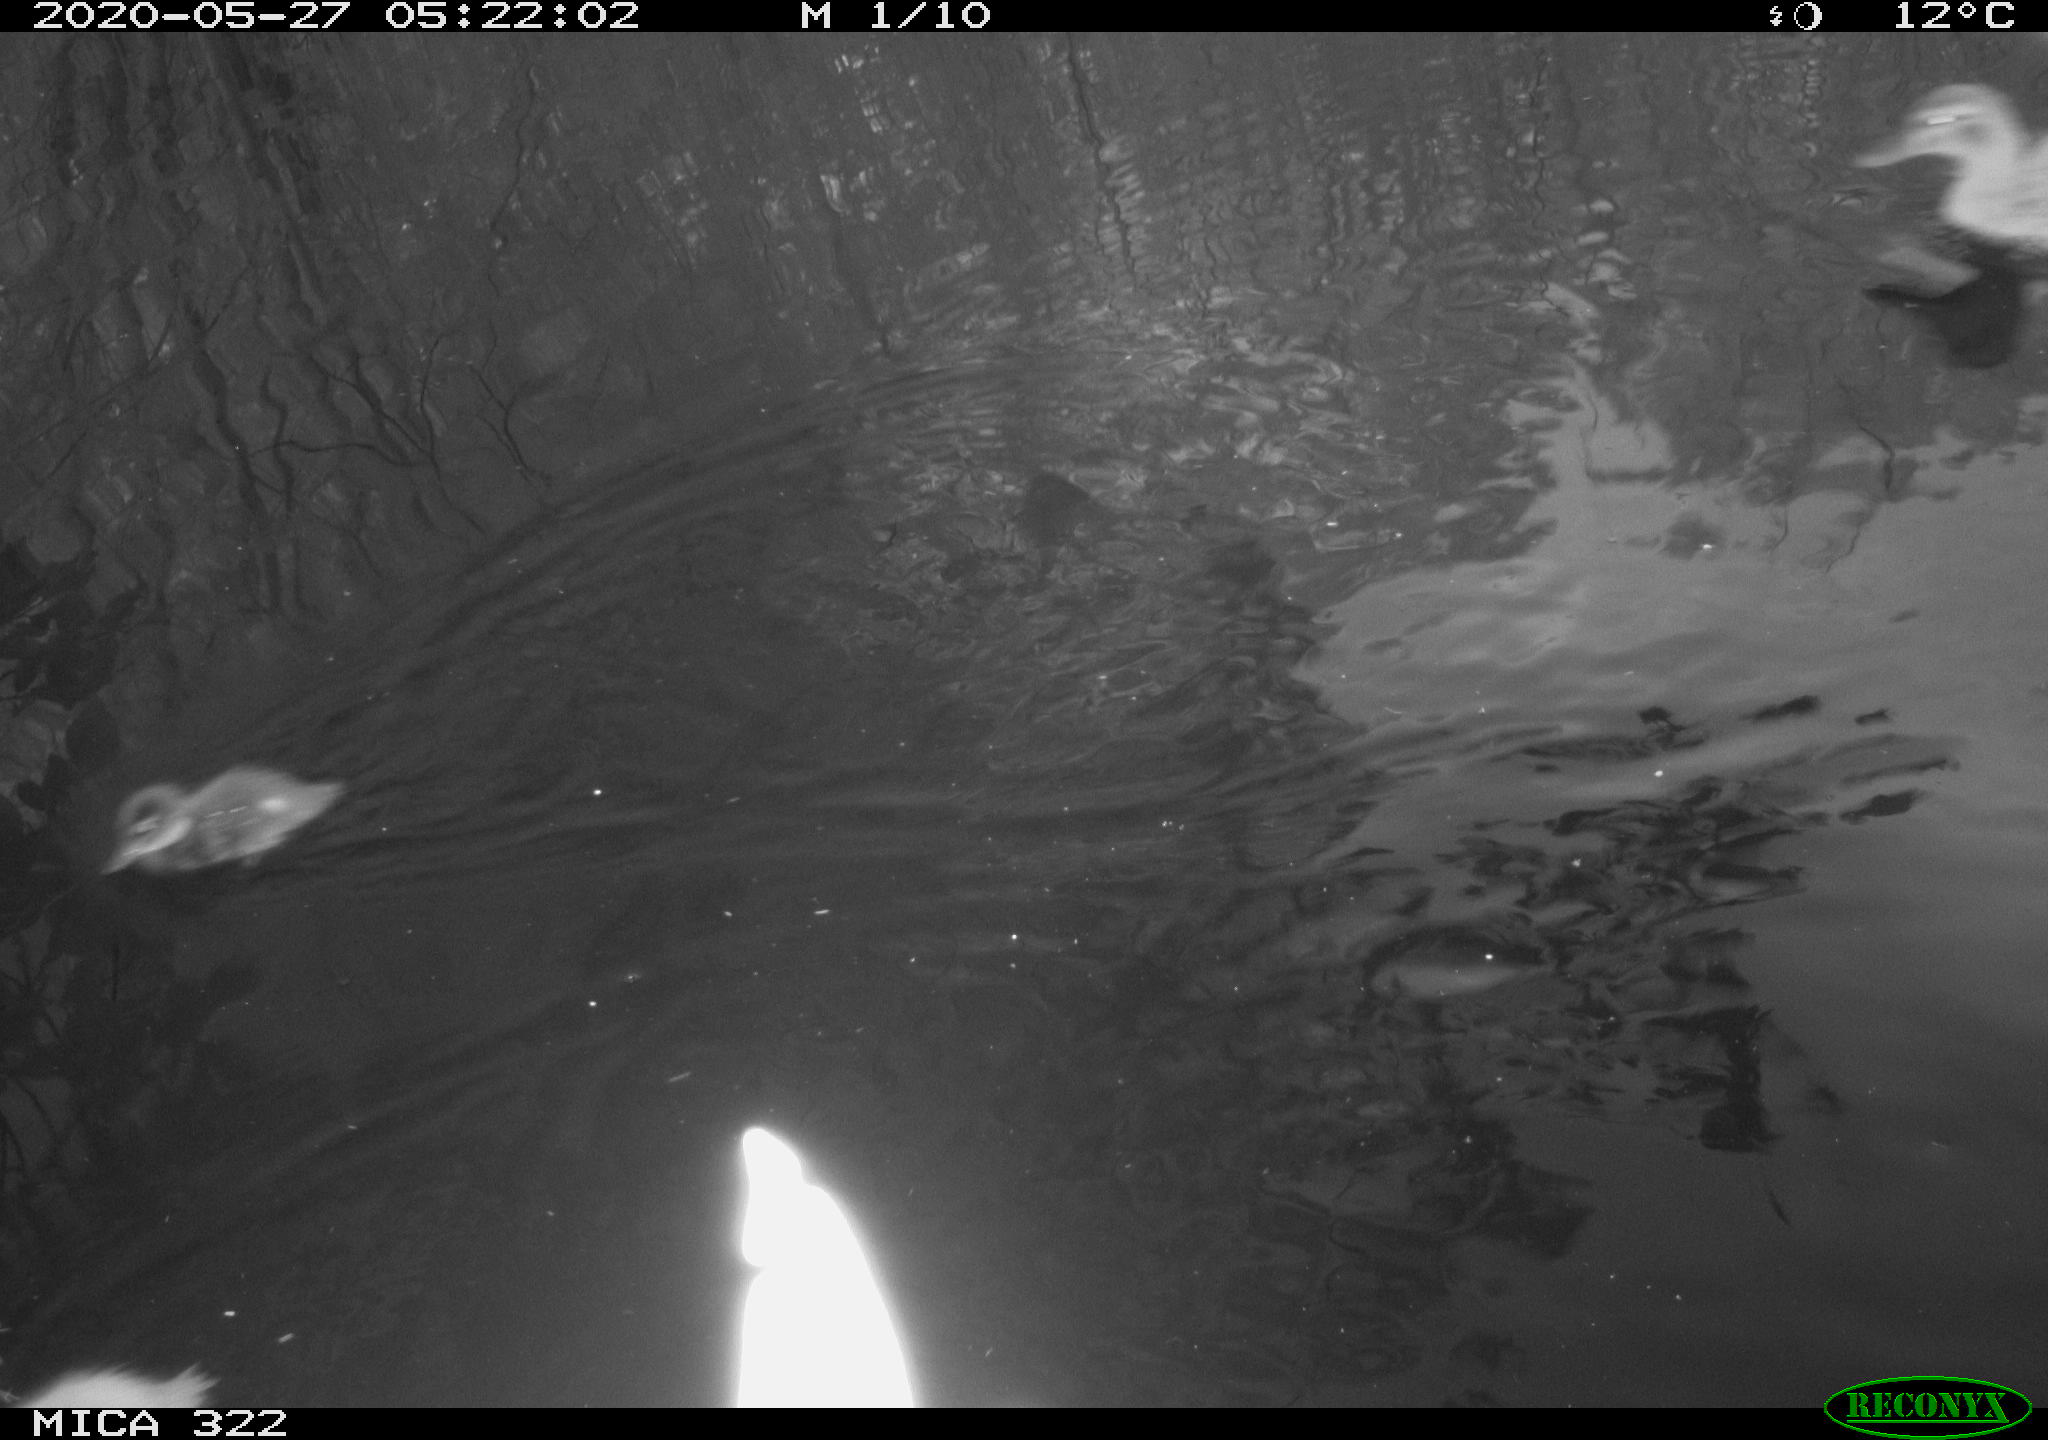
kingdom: Animalia
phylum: Chordata
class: Aves
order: Anseriformes
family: Anatidae
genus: Anas
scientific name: Anas platyrhynchos
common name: Mallard
